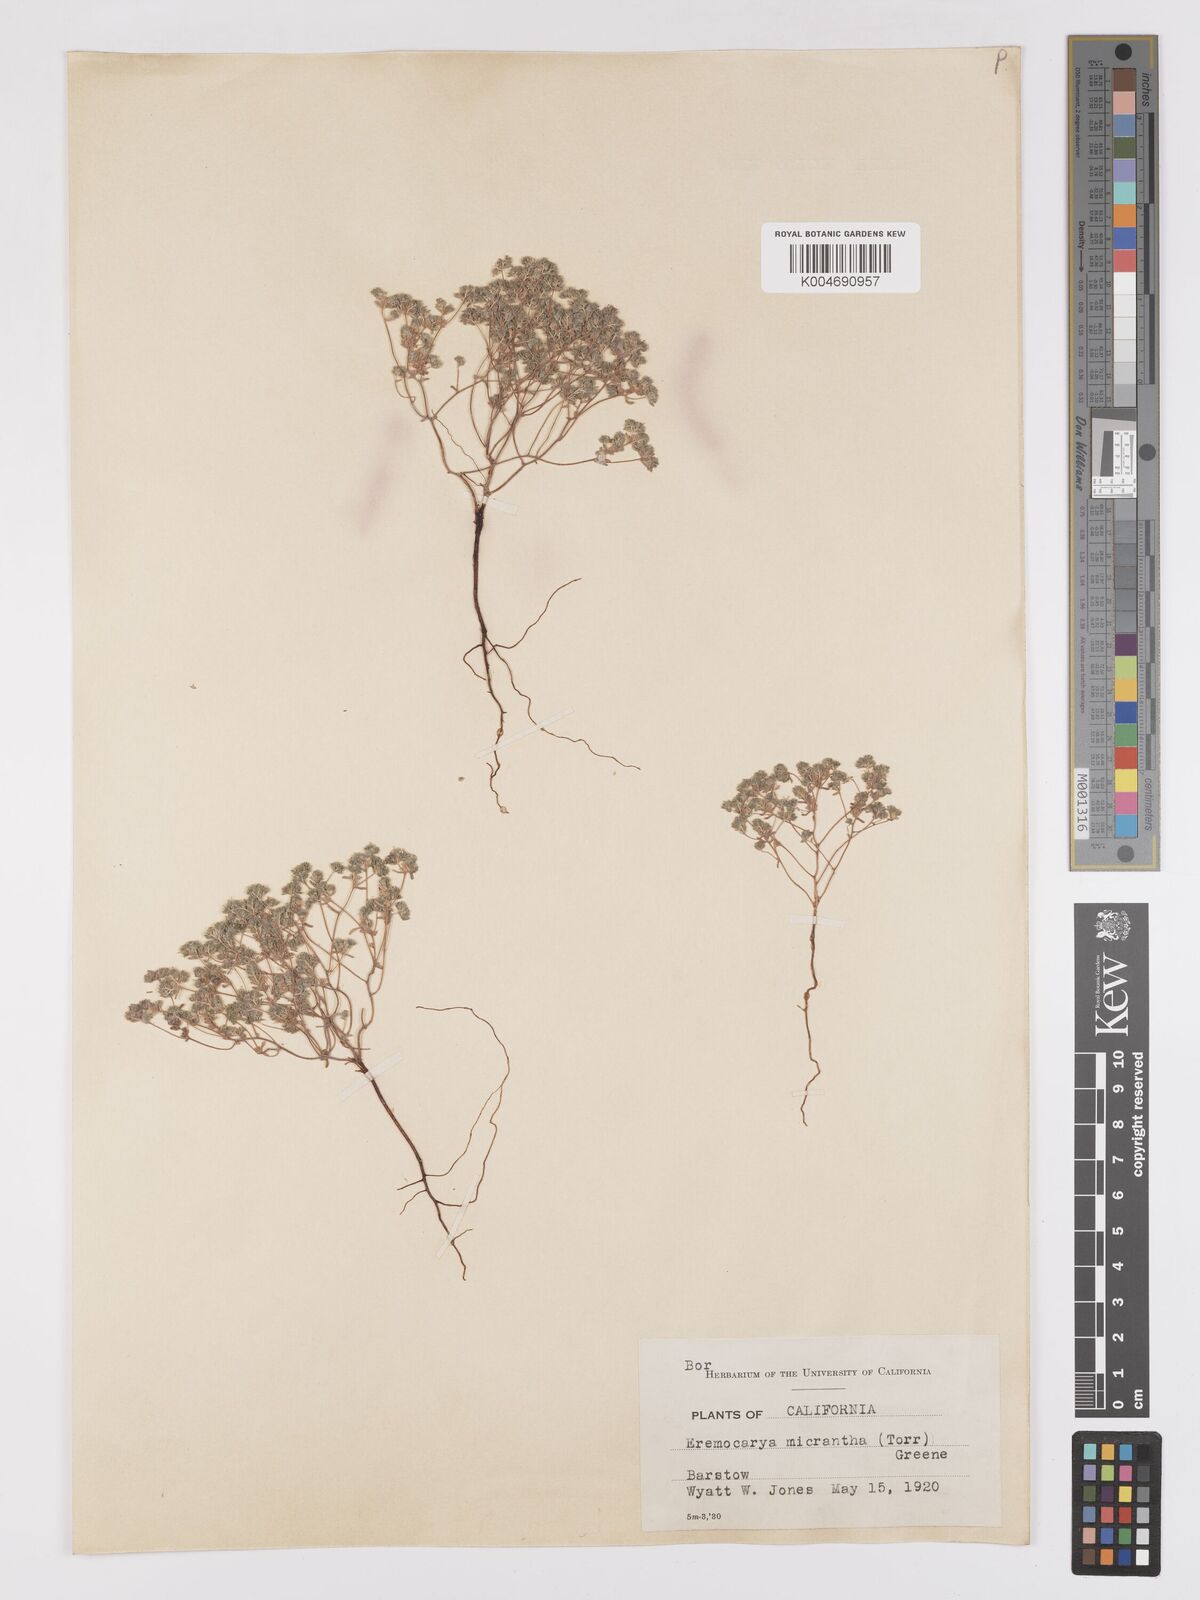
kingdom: Plantae
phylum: Tracheophyta
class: Magnoliopsida
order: Boraginales
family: Boraginaceae
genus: Eremocarya
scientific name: Eremocarya micrantha
